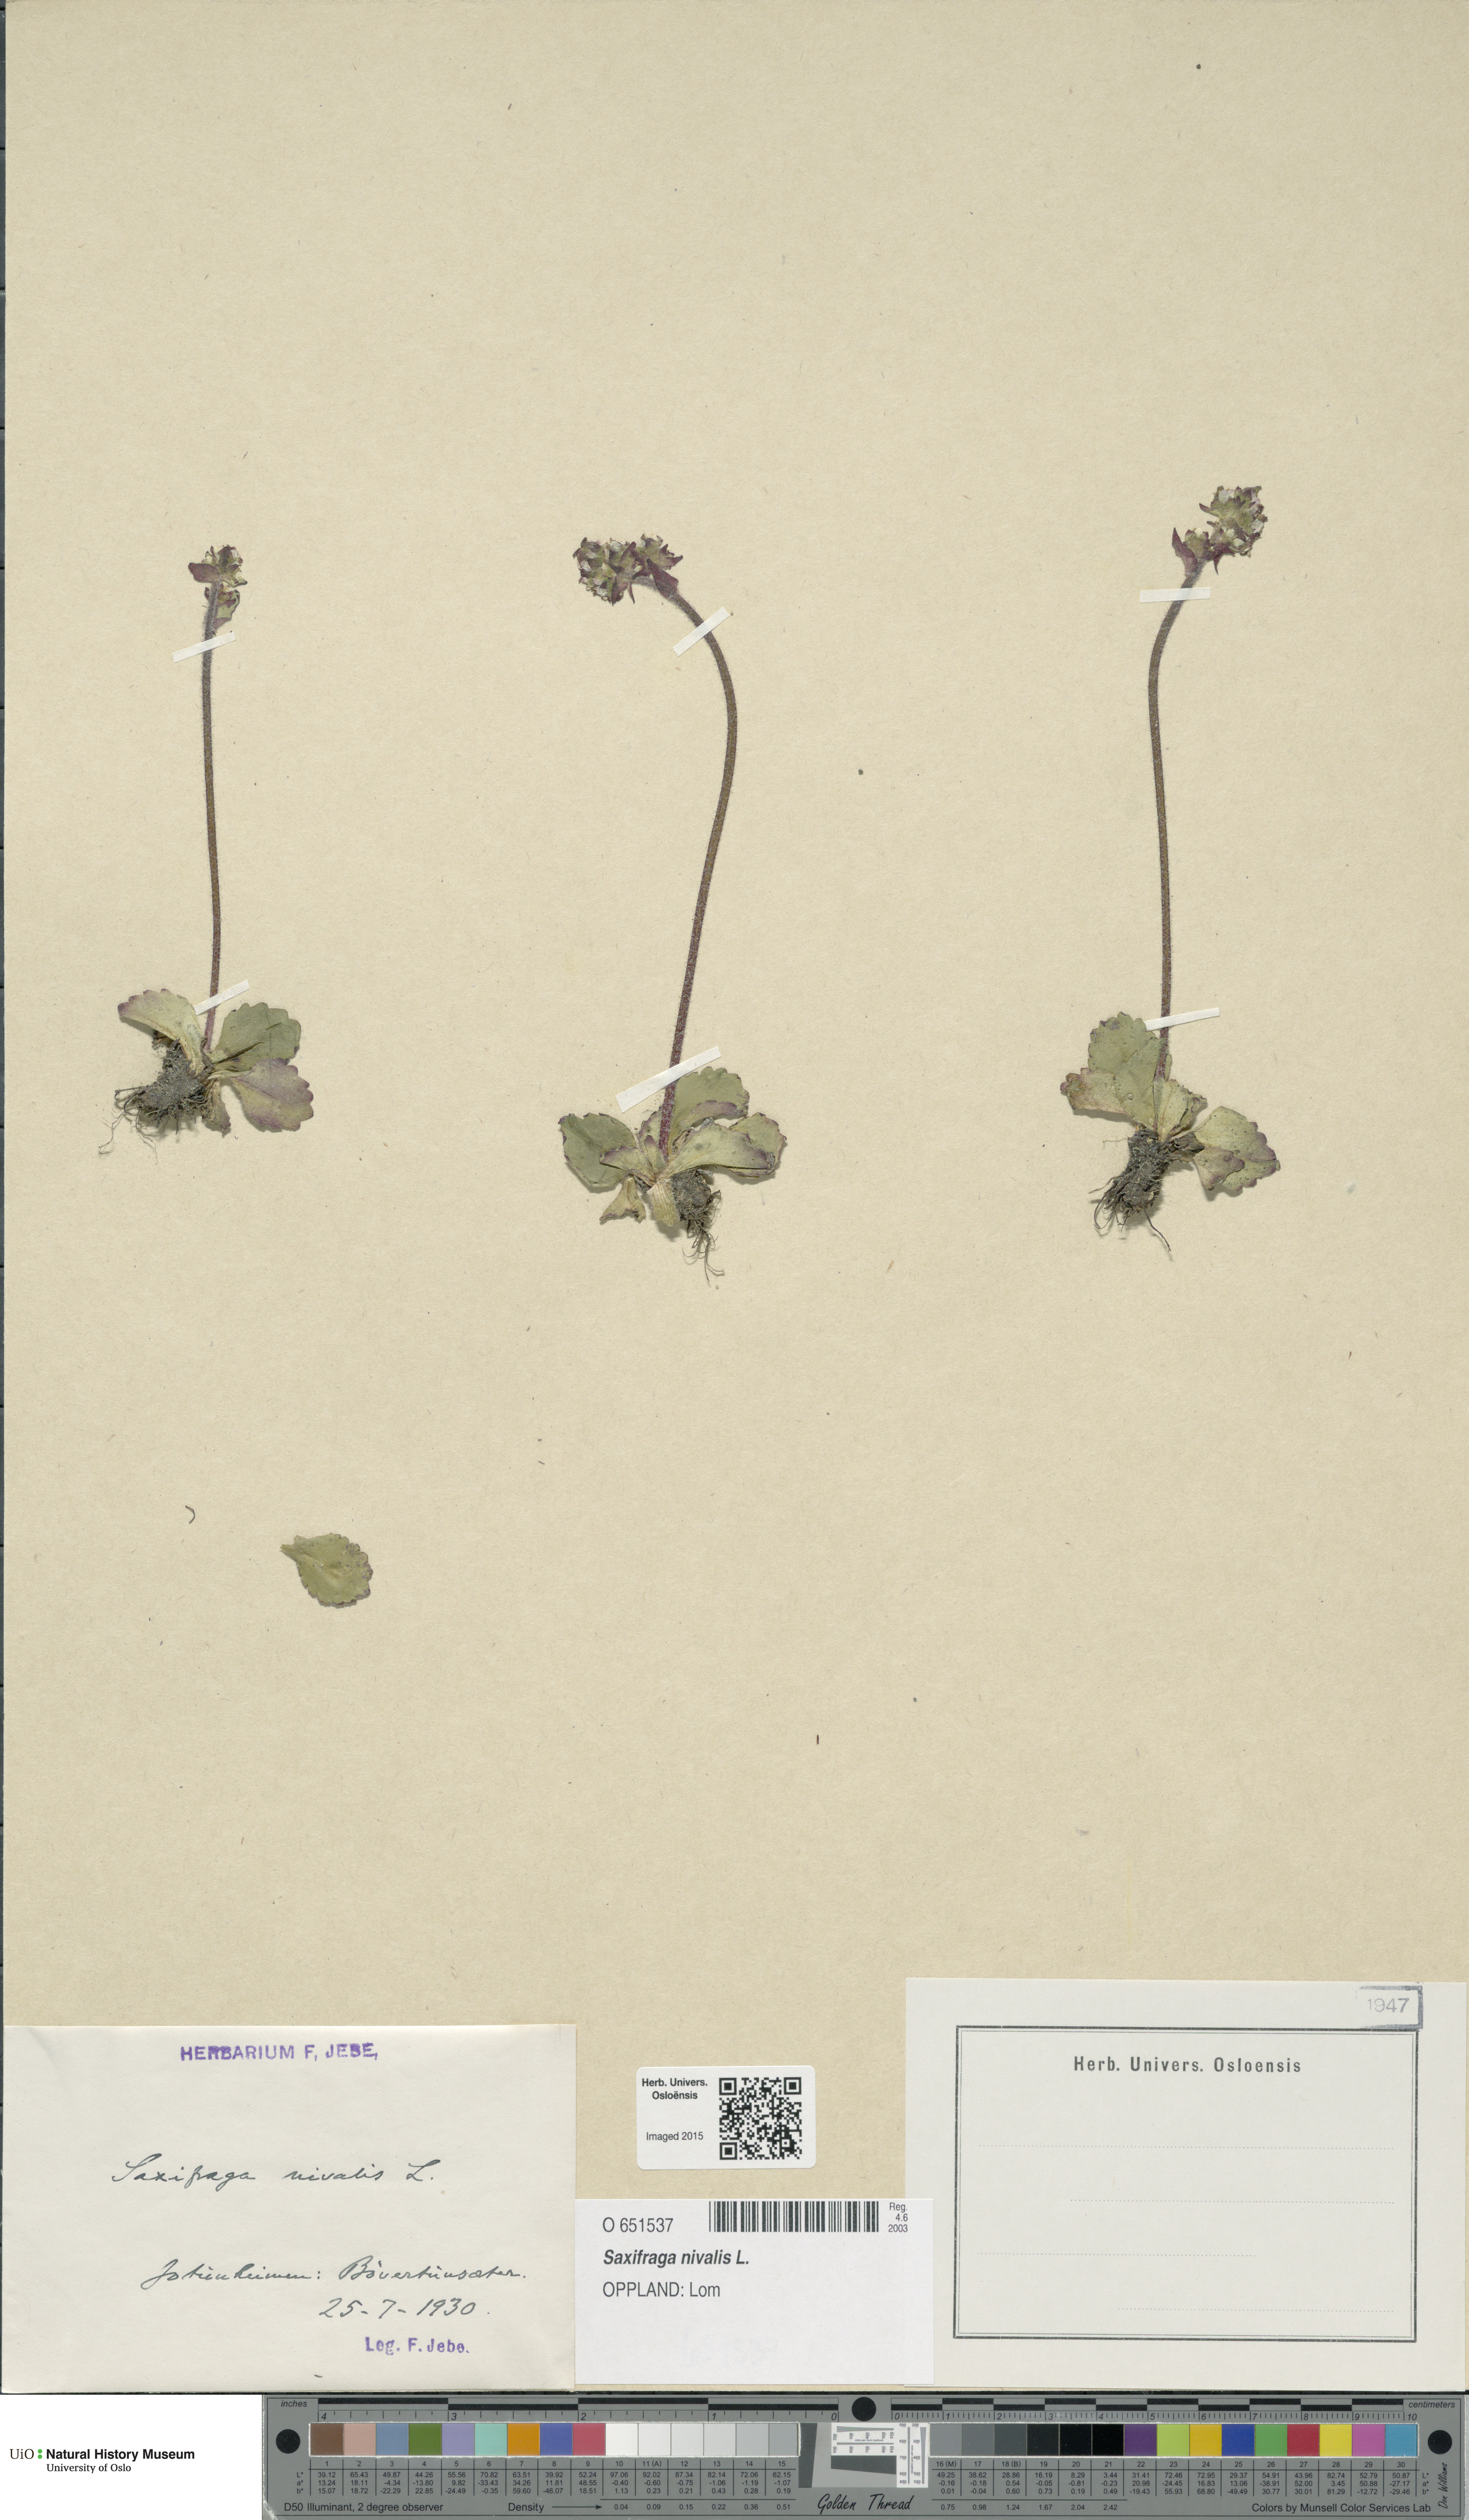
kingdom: Plantae
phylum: Tracheophyta
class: Magnoliopsida
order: Saxifragales
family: Saxifragaceae
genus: Micranthes
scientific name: Micranthes nivalis
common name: Alpine saxifrage
